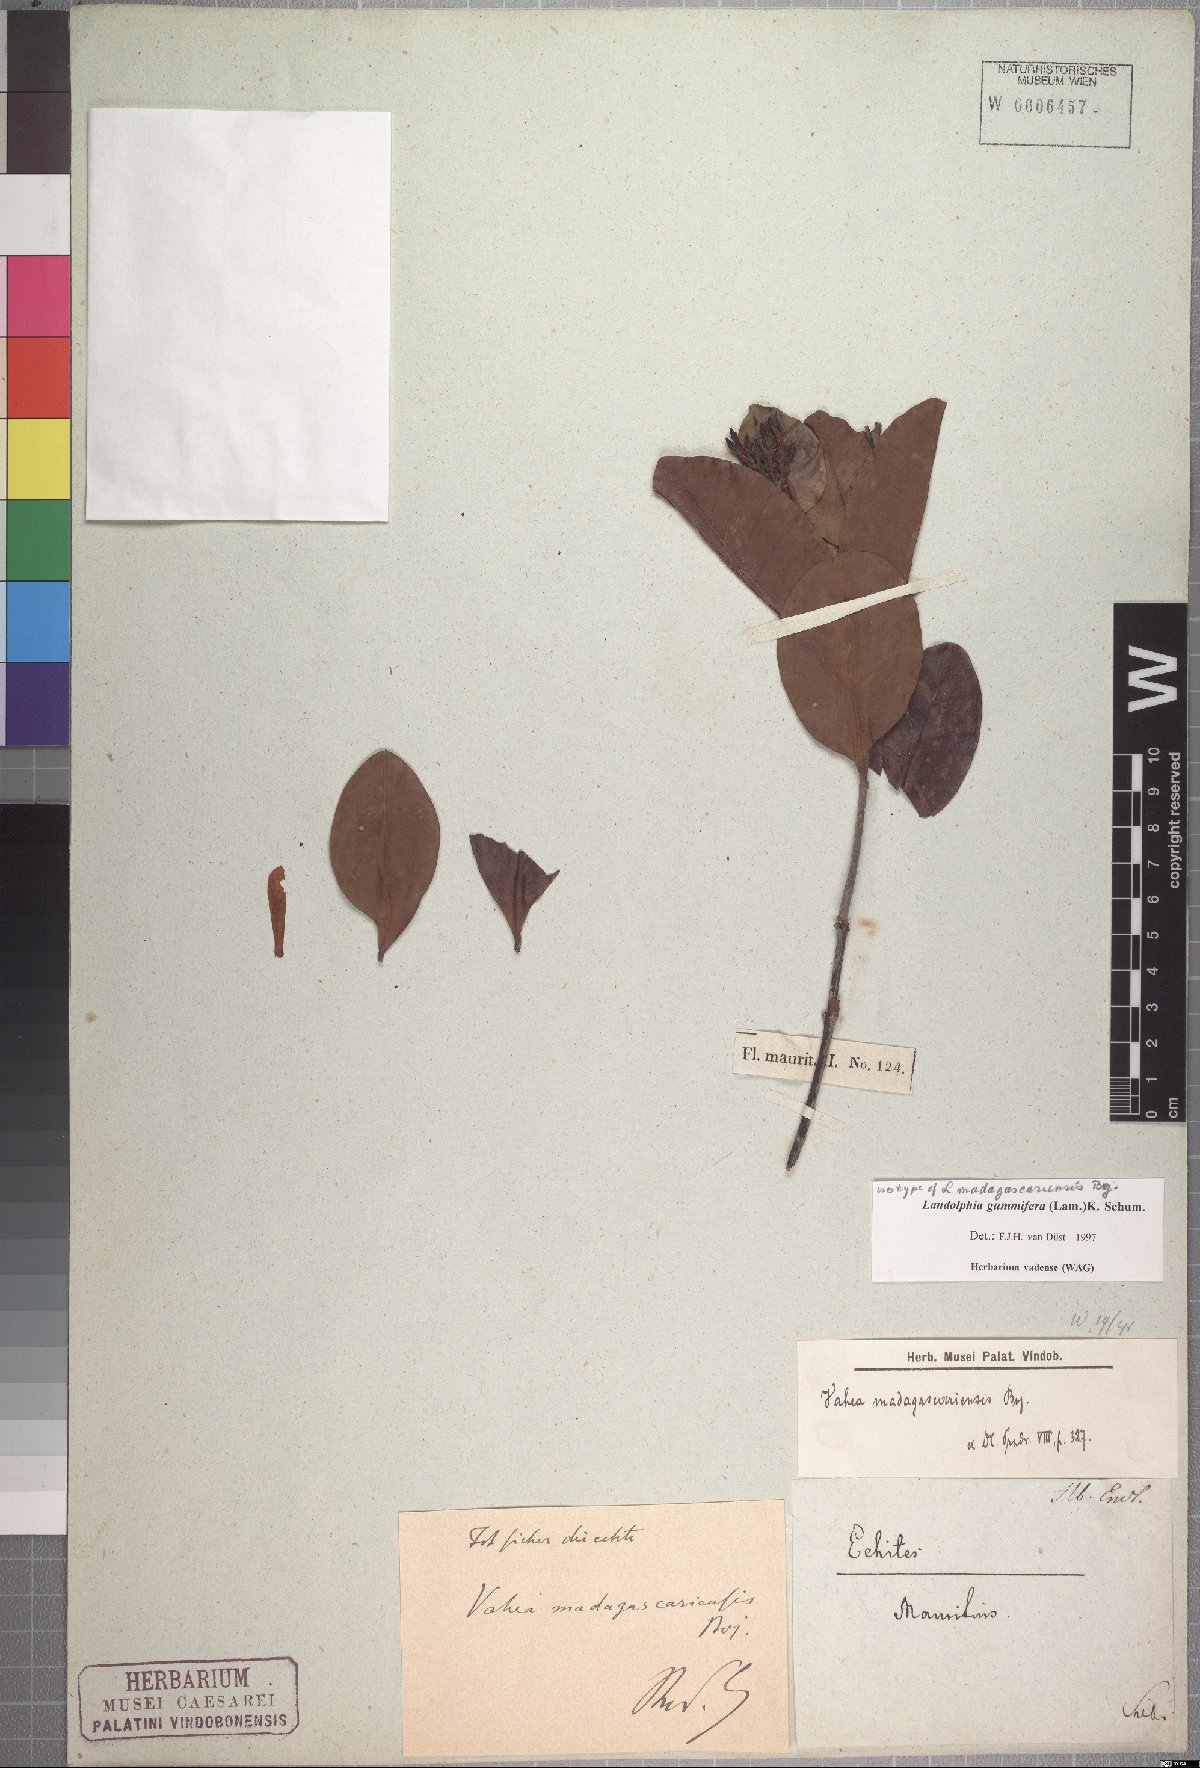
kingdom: Plantae
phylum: Tracheophyta
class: Magnoliopsida
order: Gentianales
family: Apocynaceae
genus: Landolphia
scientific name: Landolphia gummifera
